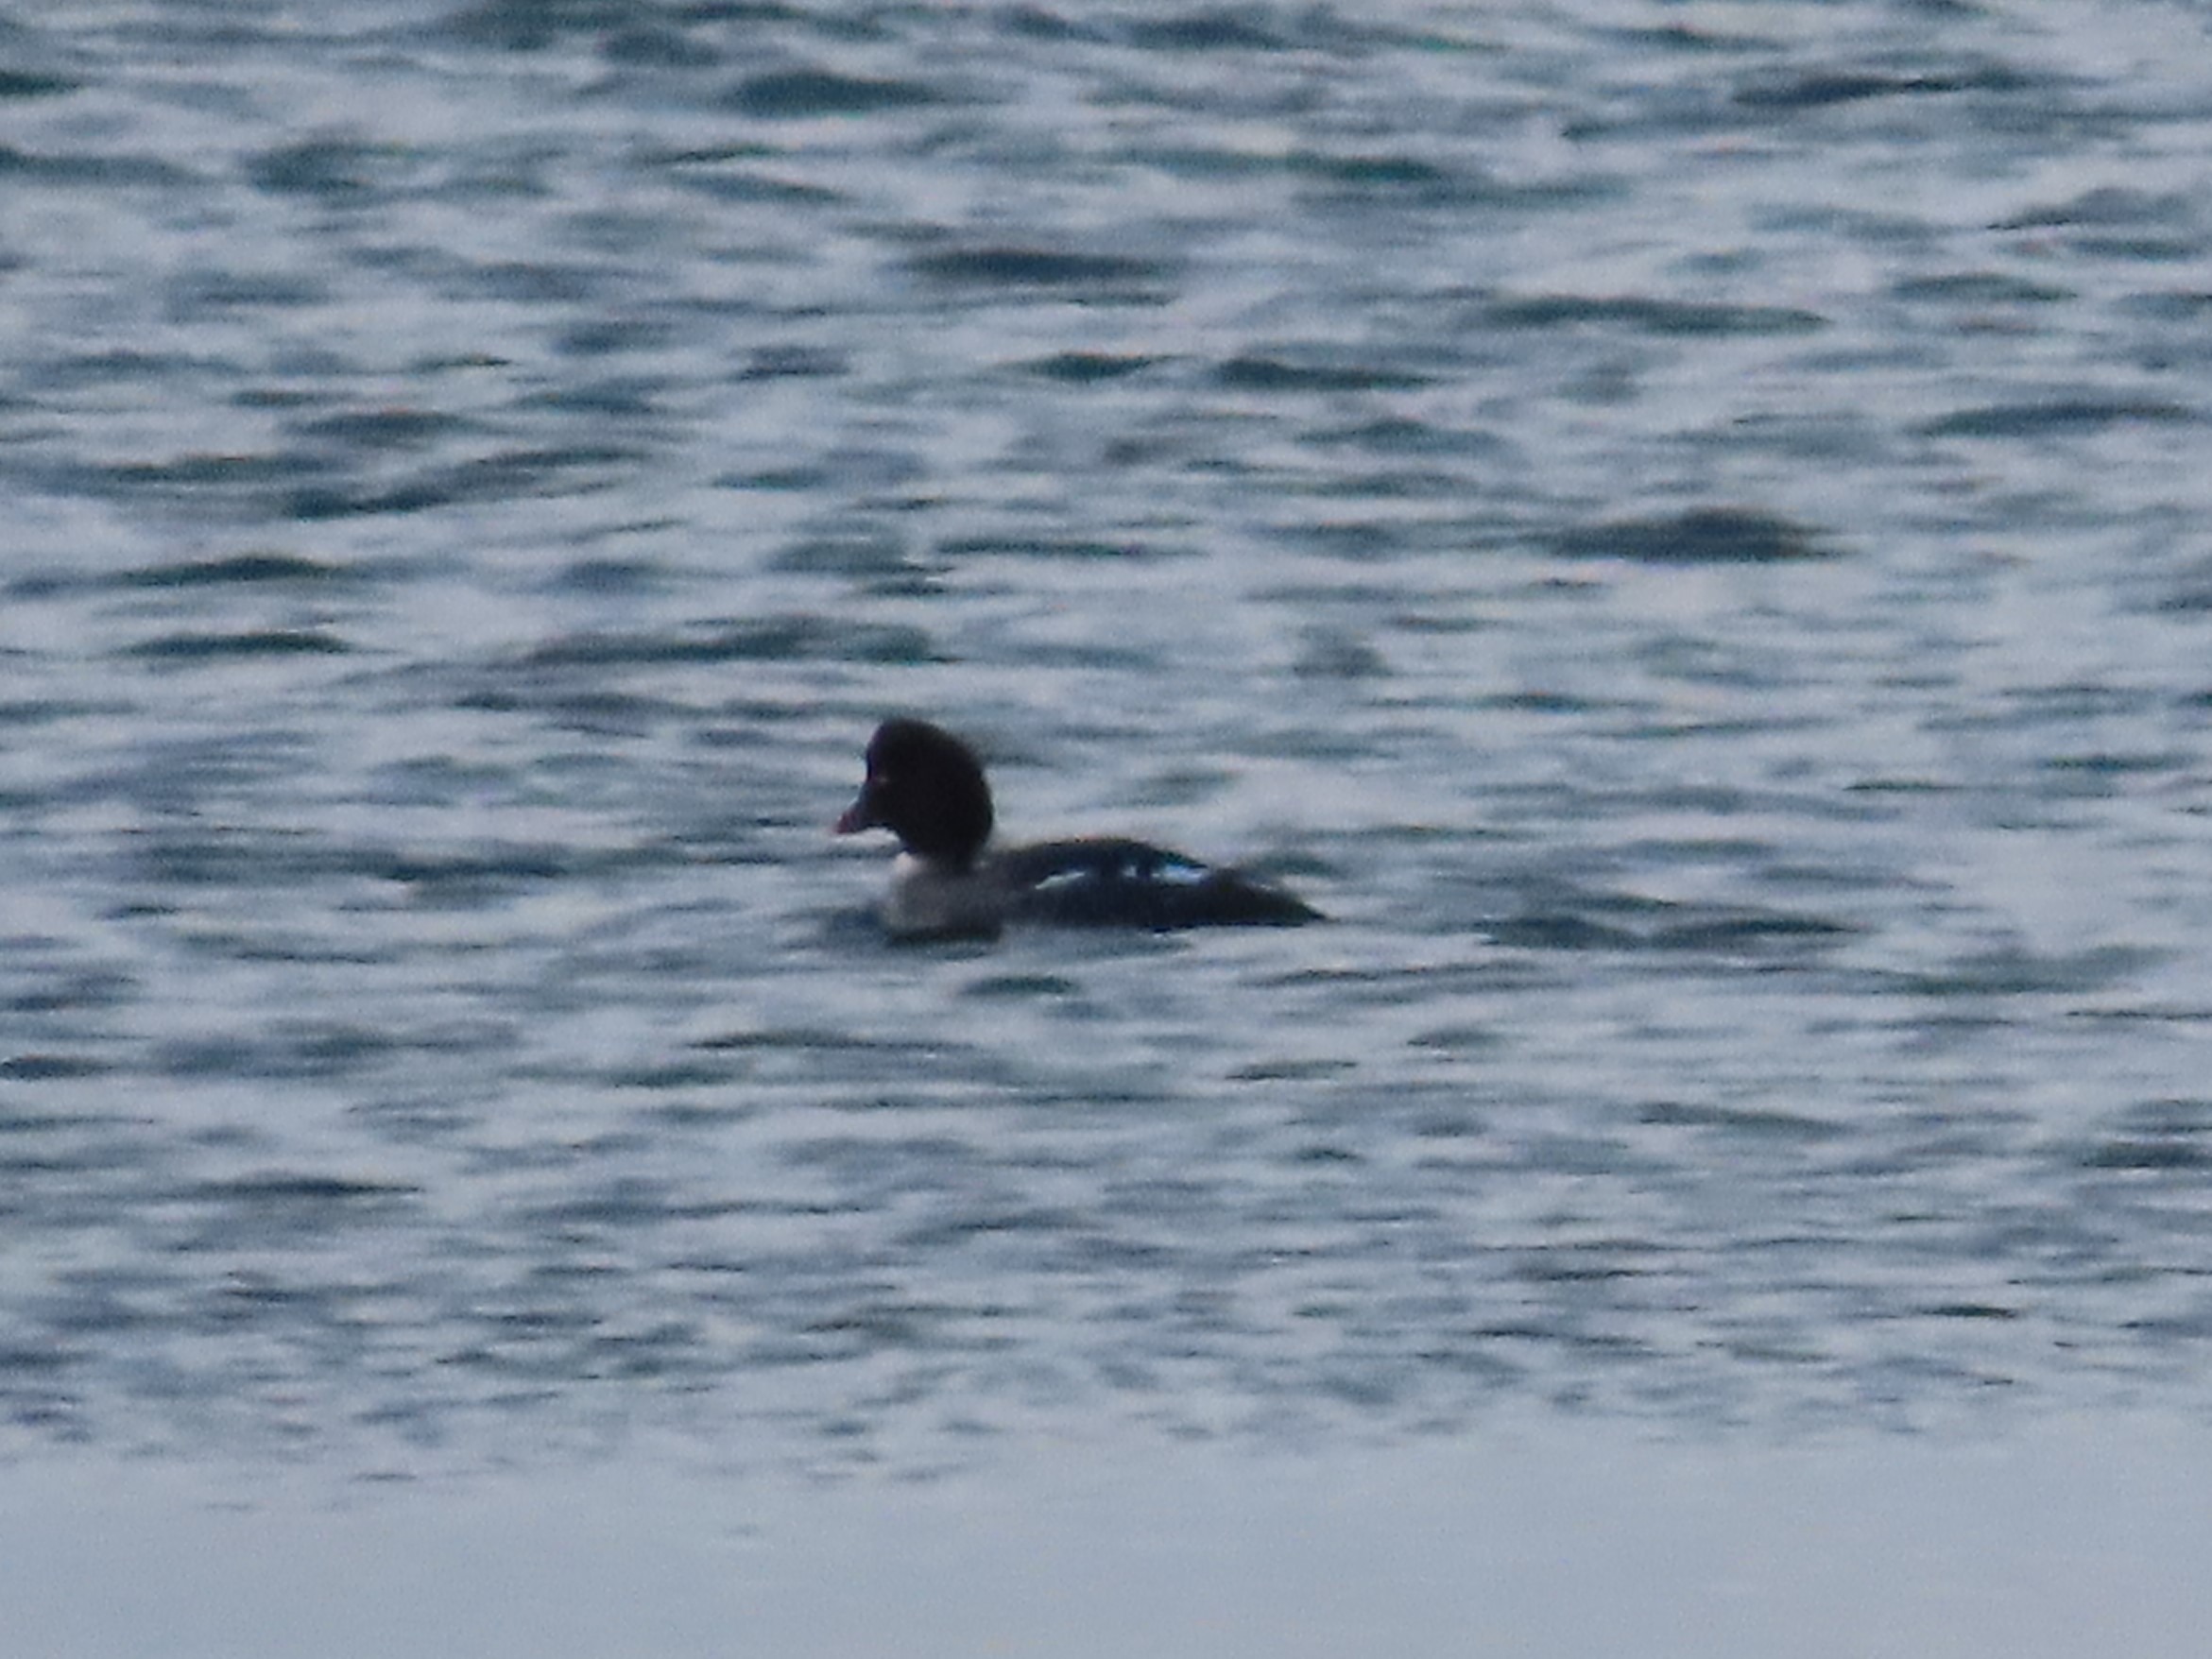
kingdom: Animalia
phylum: Chordata
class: Aves
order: Anseriformes
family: Anatidae
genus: Bucephala
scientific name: Bucephala clangula
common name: Hvinand
